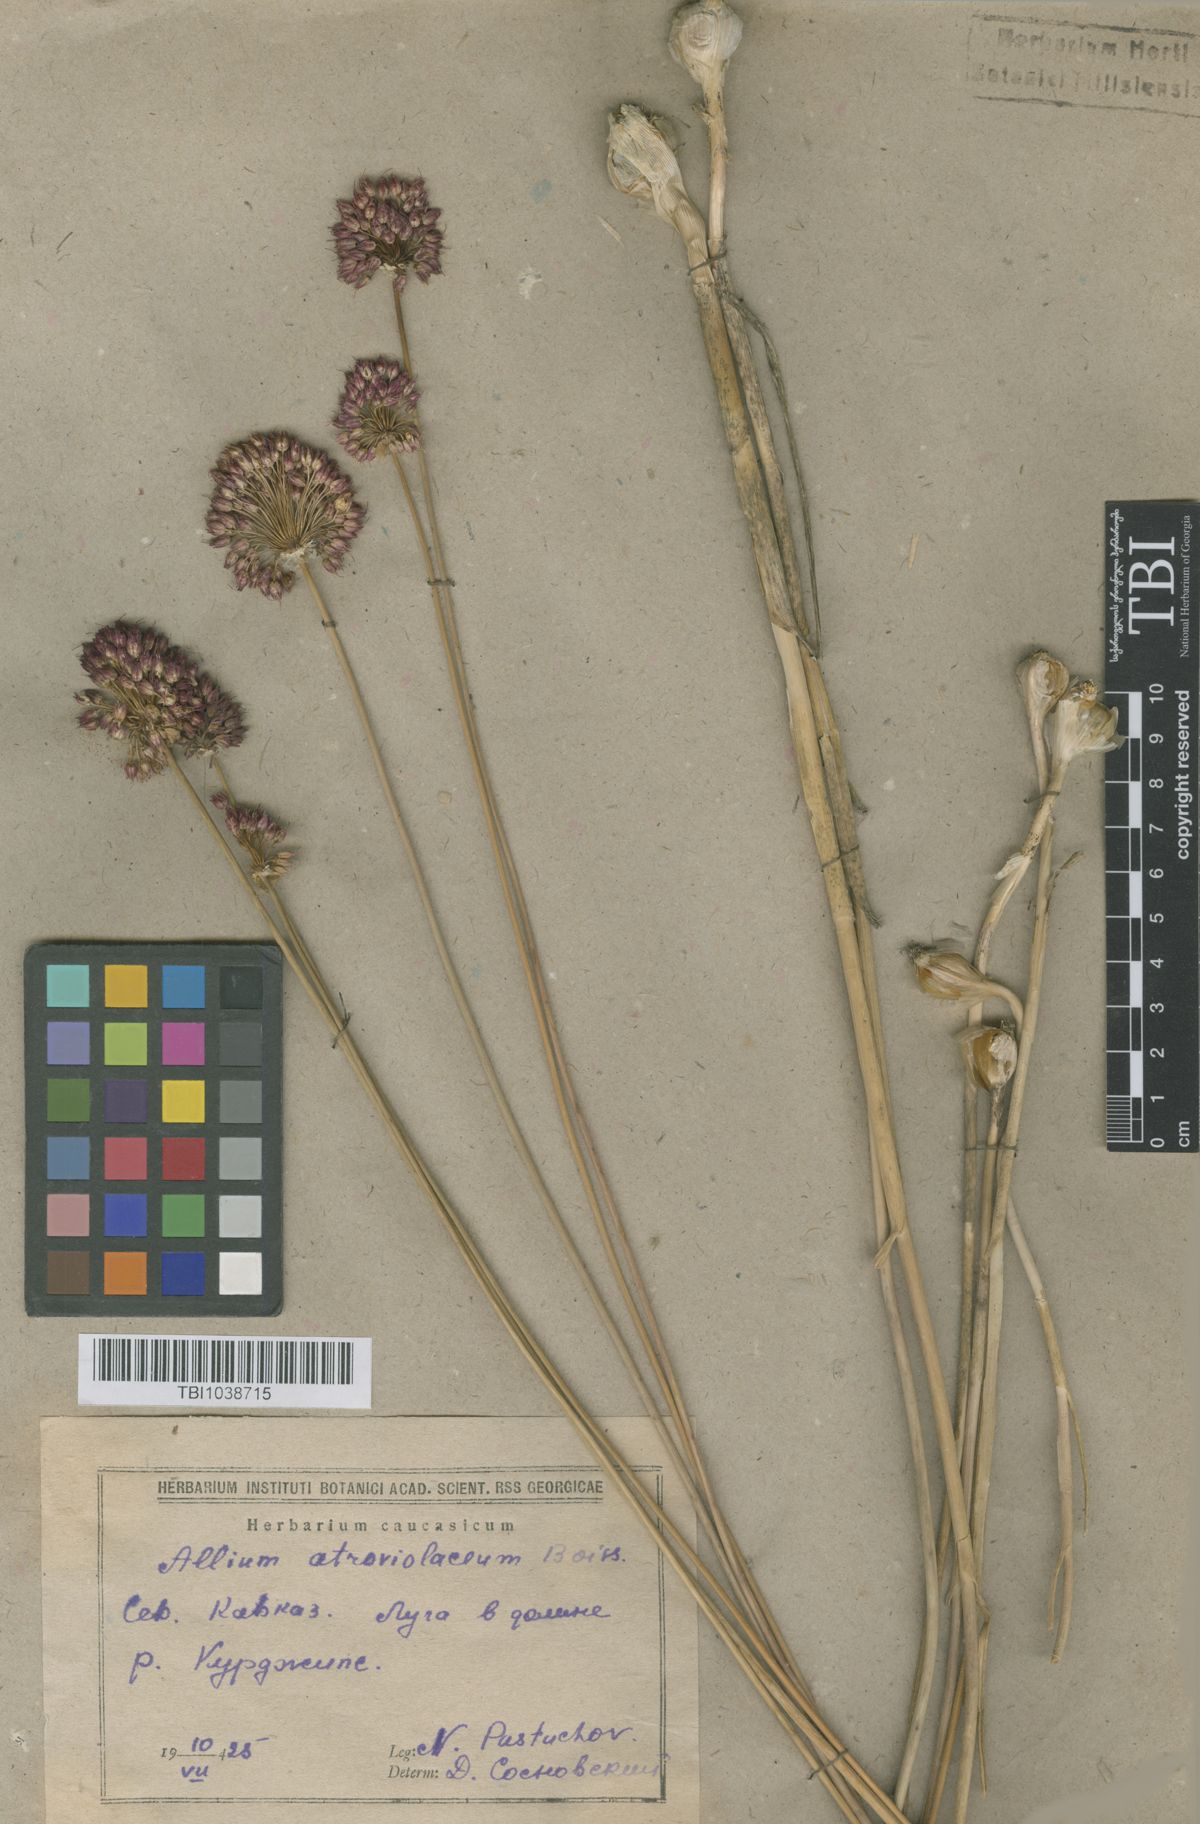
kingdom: Plantae
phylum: Tracheophyta
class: Liliopsida
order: Asparagales
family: Amaryllidaceae
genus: Allium
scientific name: Allium atroviolaceum
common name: Broadleaf wild leek
